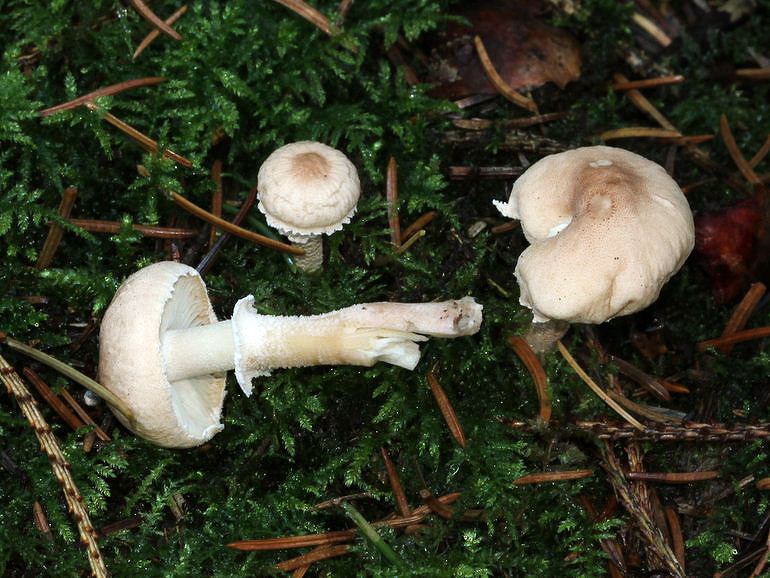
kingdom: Fungi
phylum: Basidiomycota
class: Agaricomycetes
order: Agaricales
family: Tricholomataceae
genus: Cystoderma
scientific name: Cystoderma carcharias
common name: rødgrå grynhat
